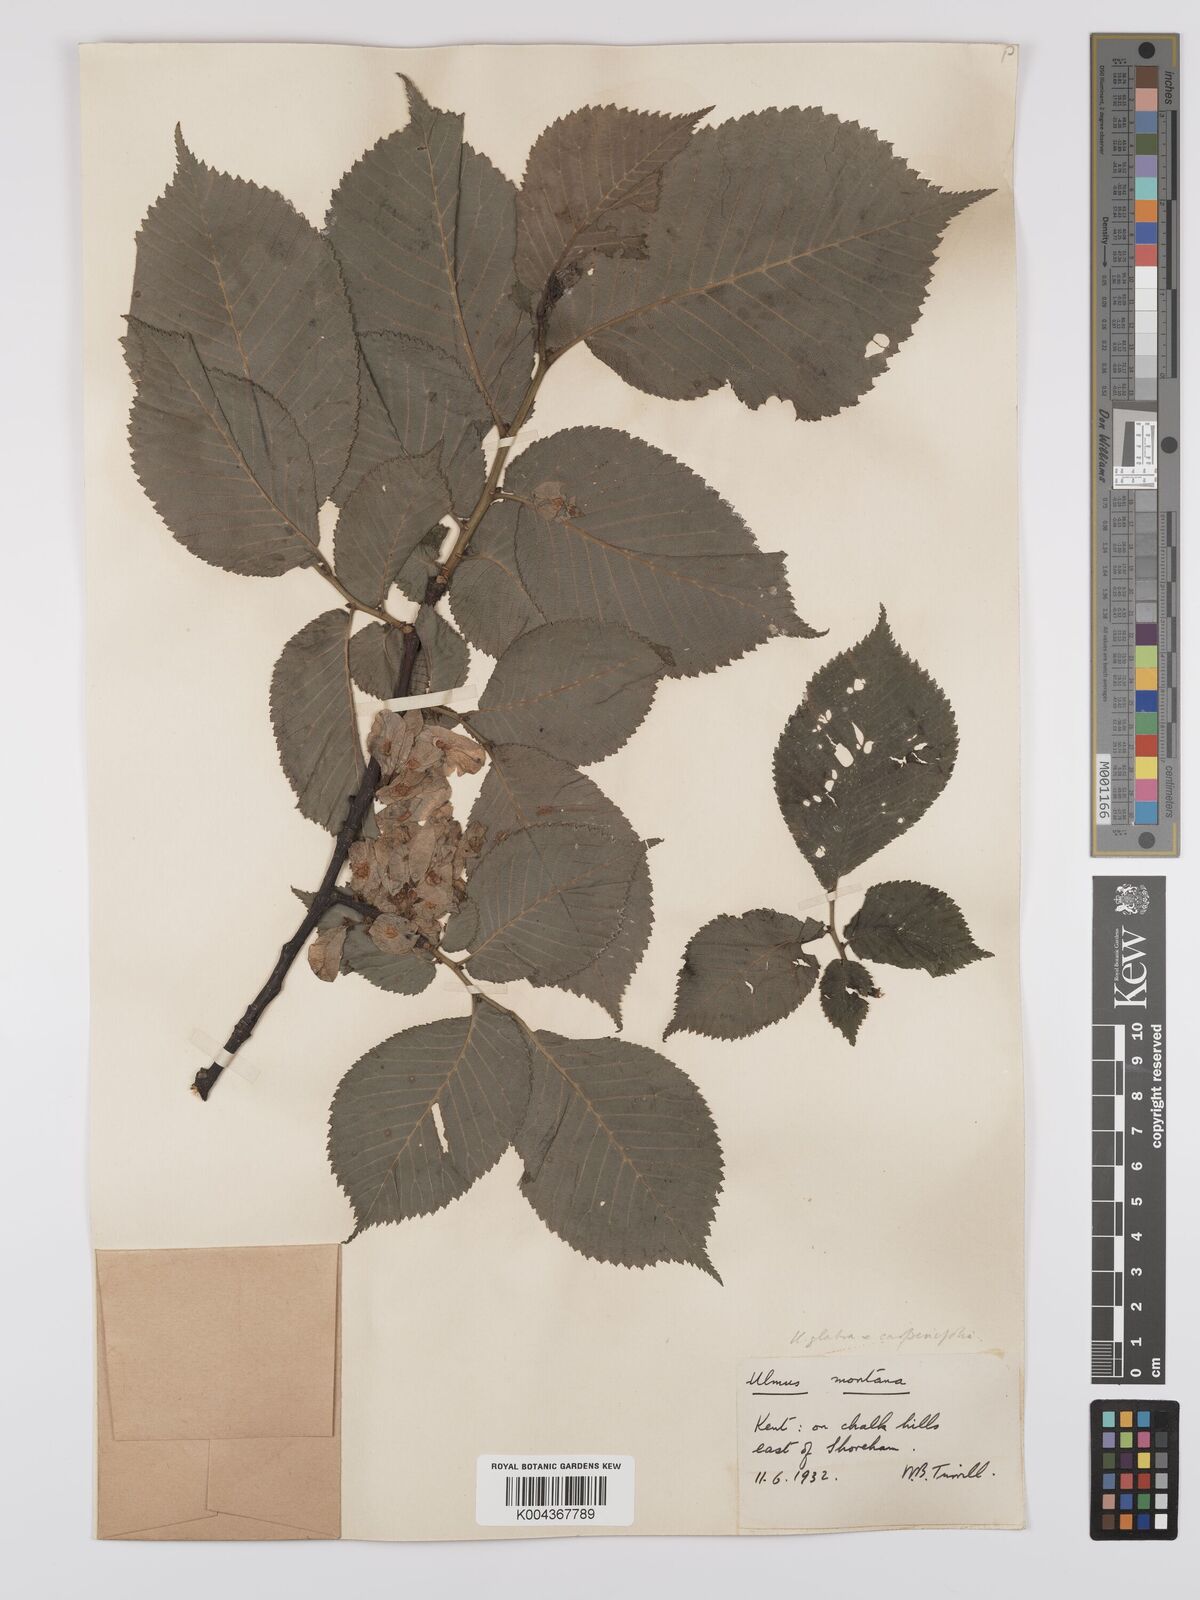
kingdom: Plantae
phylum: Tracheophyta
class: Magnoliopsida
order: Rosales
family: Ulmaceae
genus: Ulmus
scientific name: Ulmus glabra
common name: Wych elm
